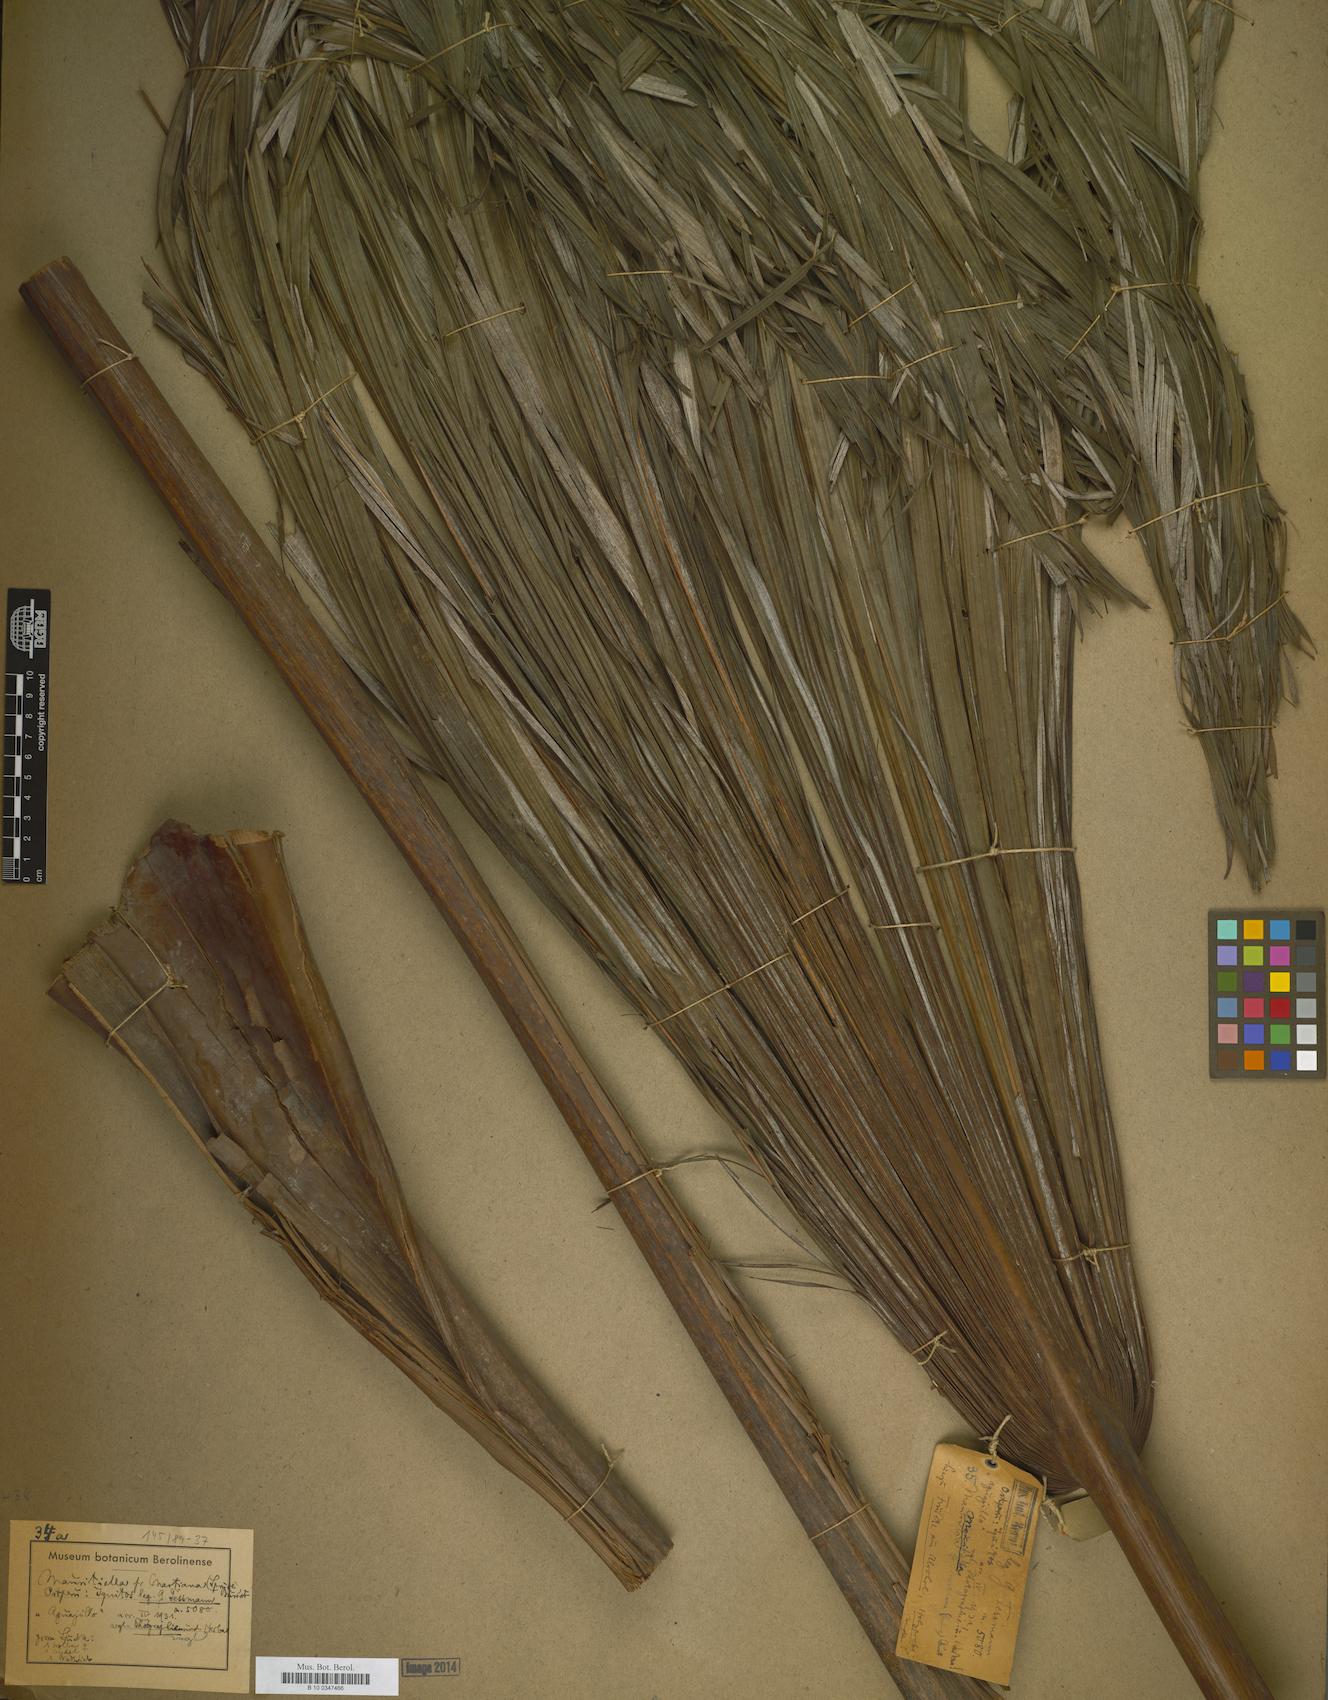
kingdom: Plantae
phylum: Tracheophyta
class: Liliopsida
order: Arecales
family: Arecaceae
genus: Mauritiella
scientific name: Mauritiella armata
